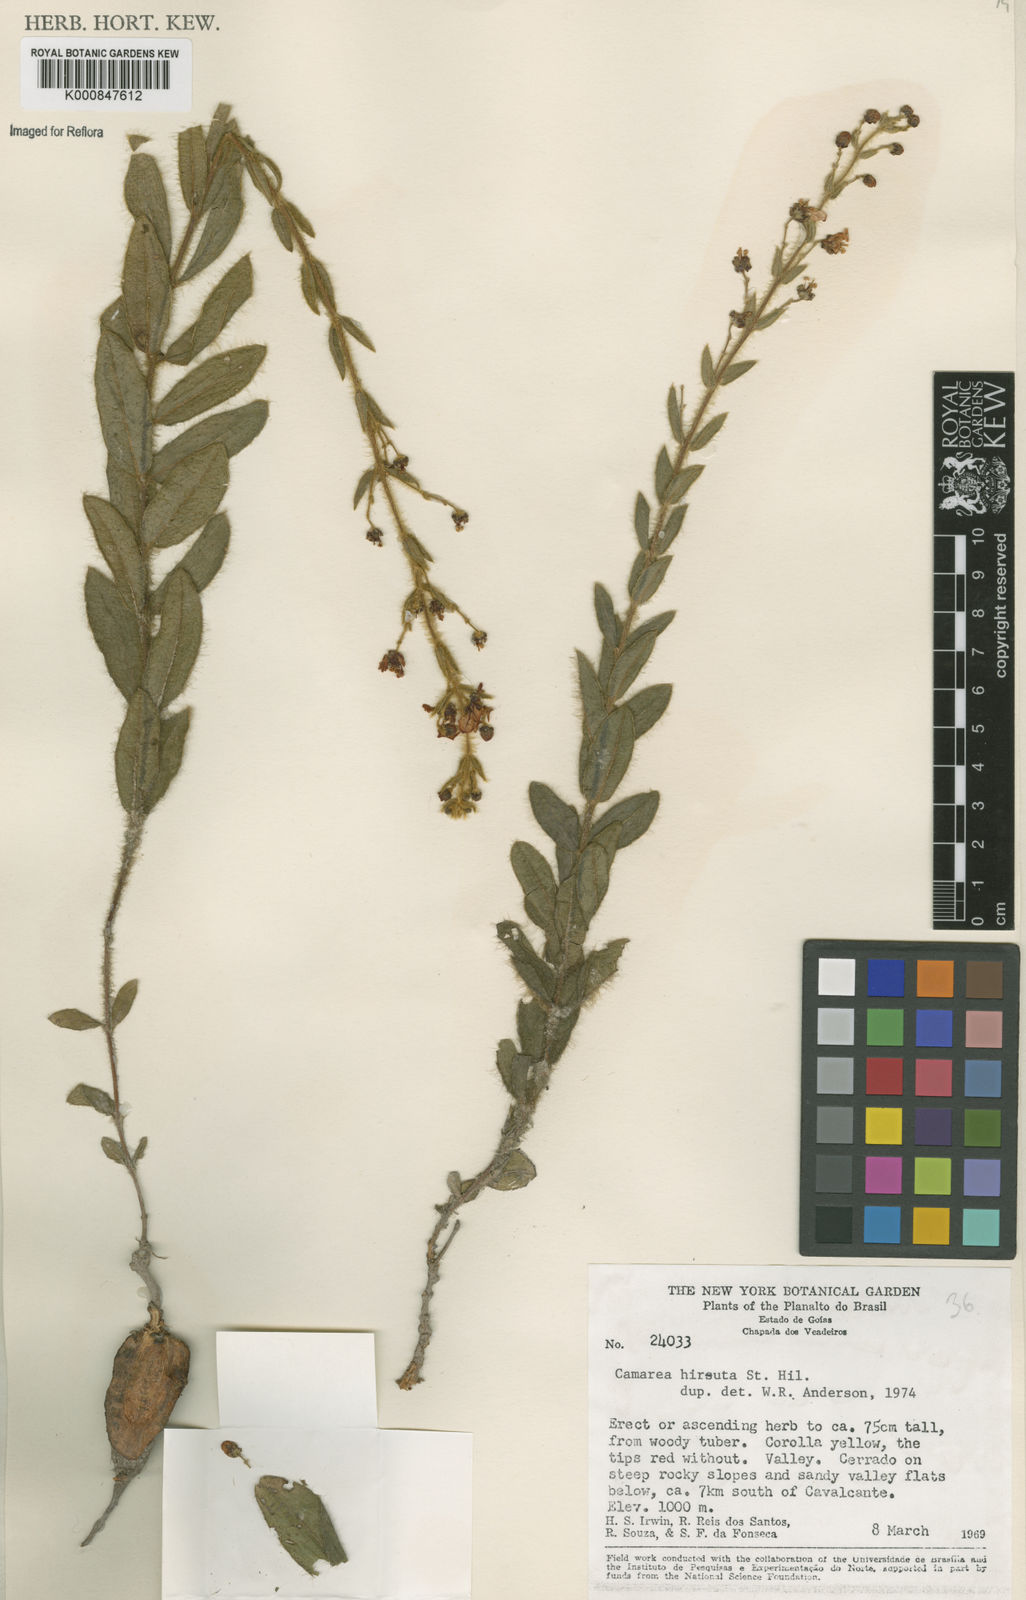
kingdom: Plantae
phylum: Tracheophyta
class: Magnoliopsida
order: Malpighiales
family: Malpighiaceae
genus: Camarea
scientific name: Camarea hirsuta
